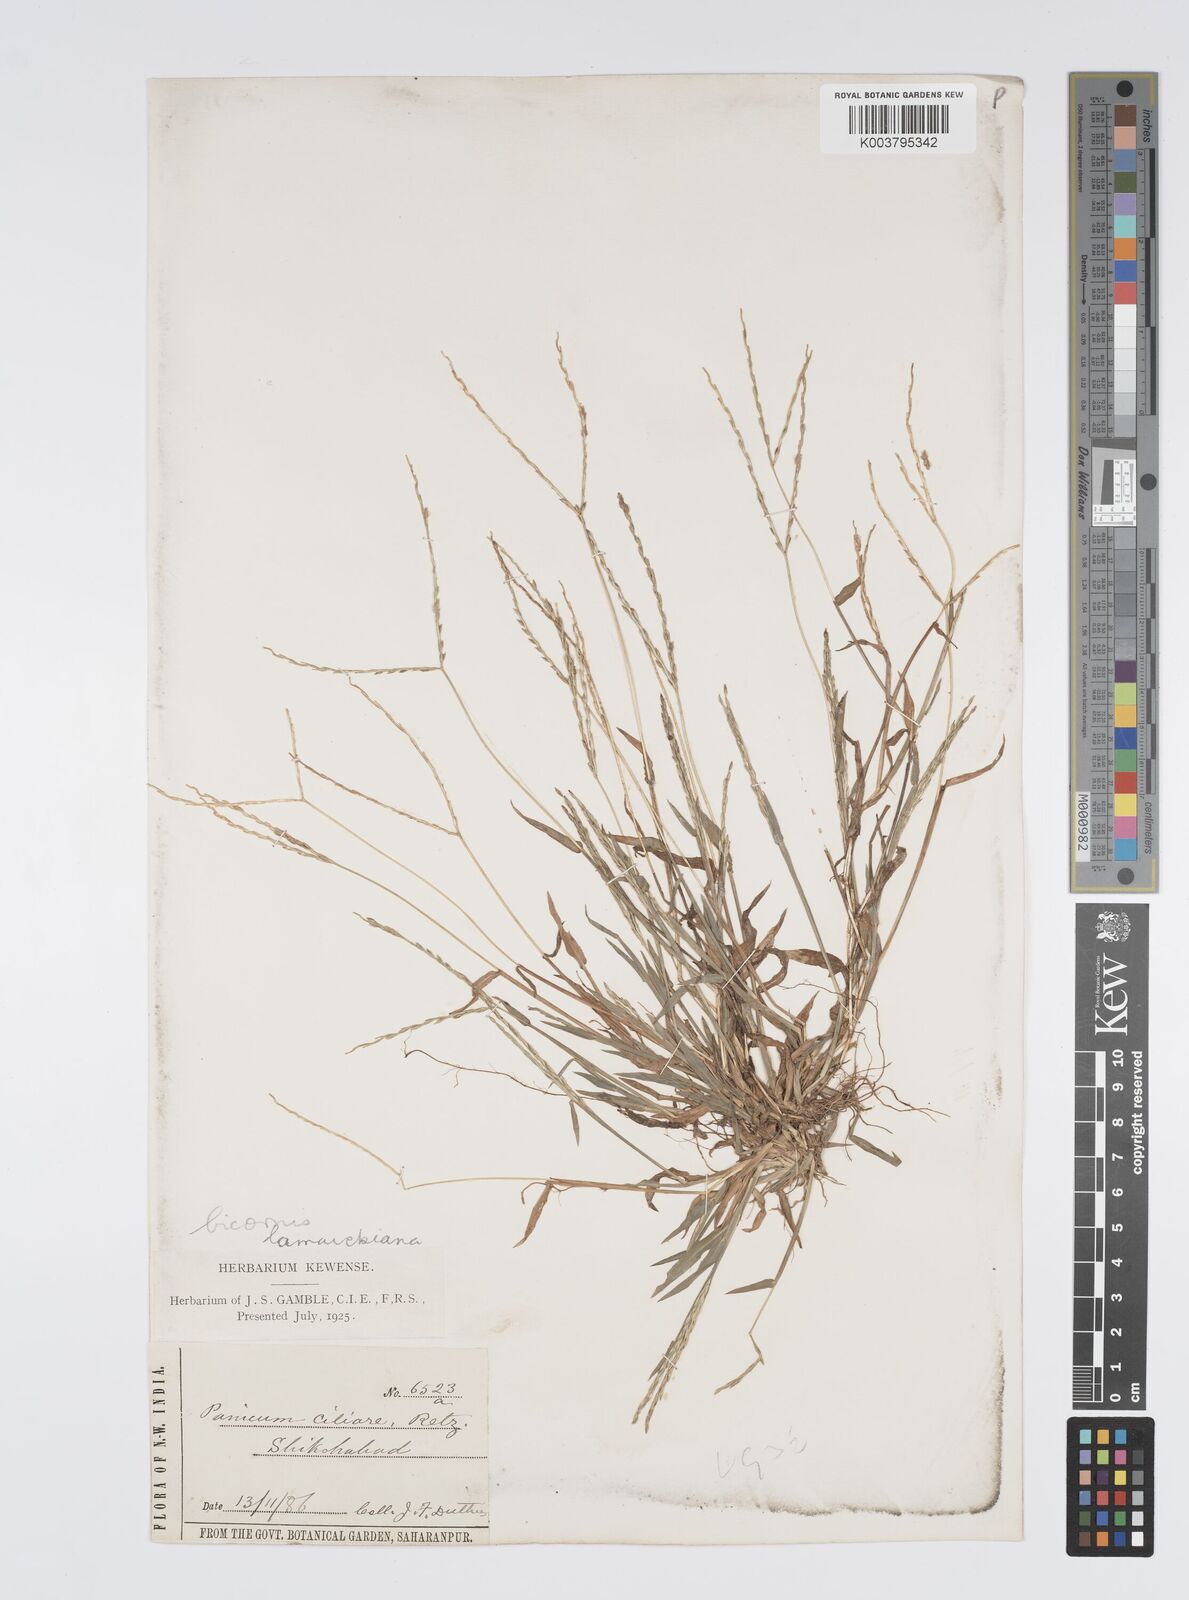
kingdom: Plantae
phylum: Tracheophyta
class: Liliopsida
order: Poales
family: Poaceae
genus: Digitaria
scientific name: Digitaria ciliaris
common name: Tropical finger-grass
